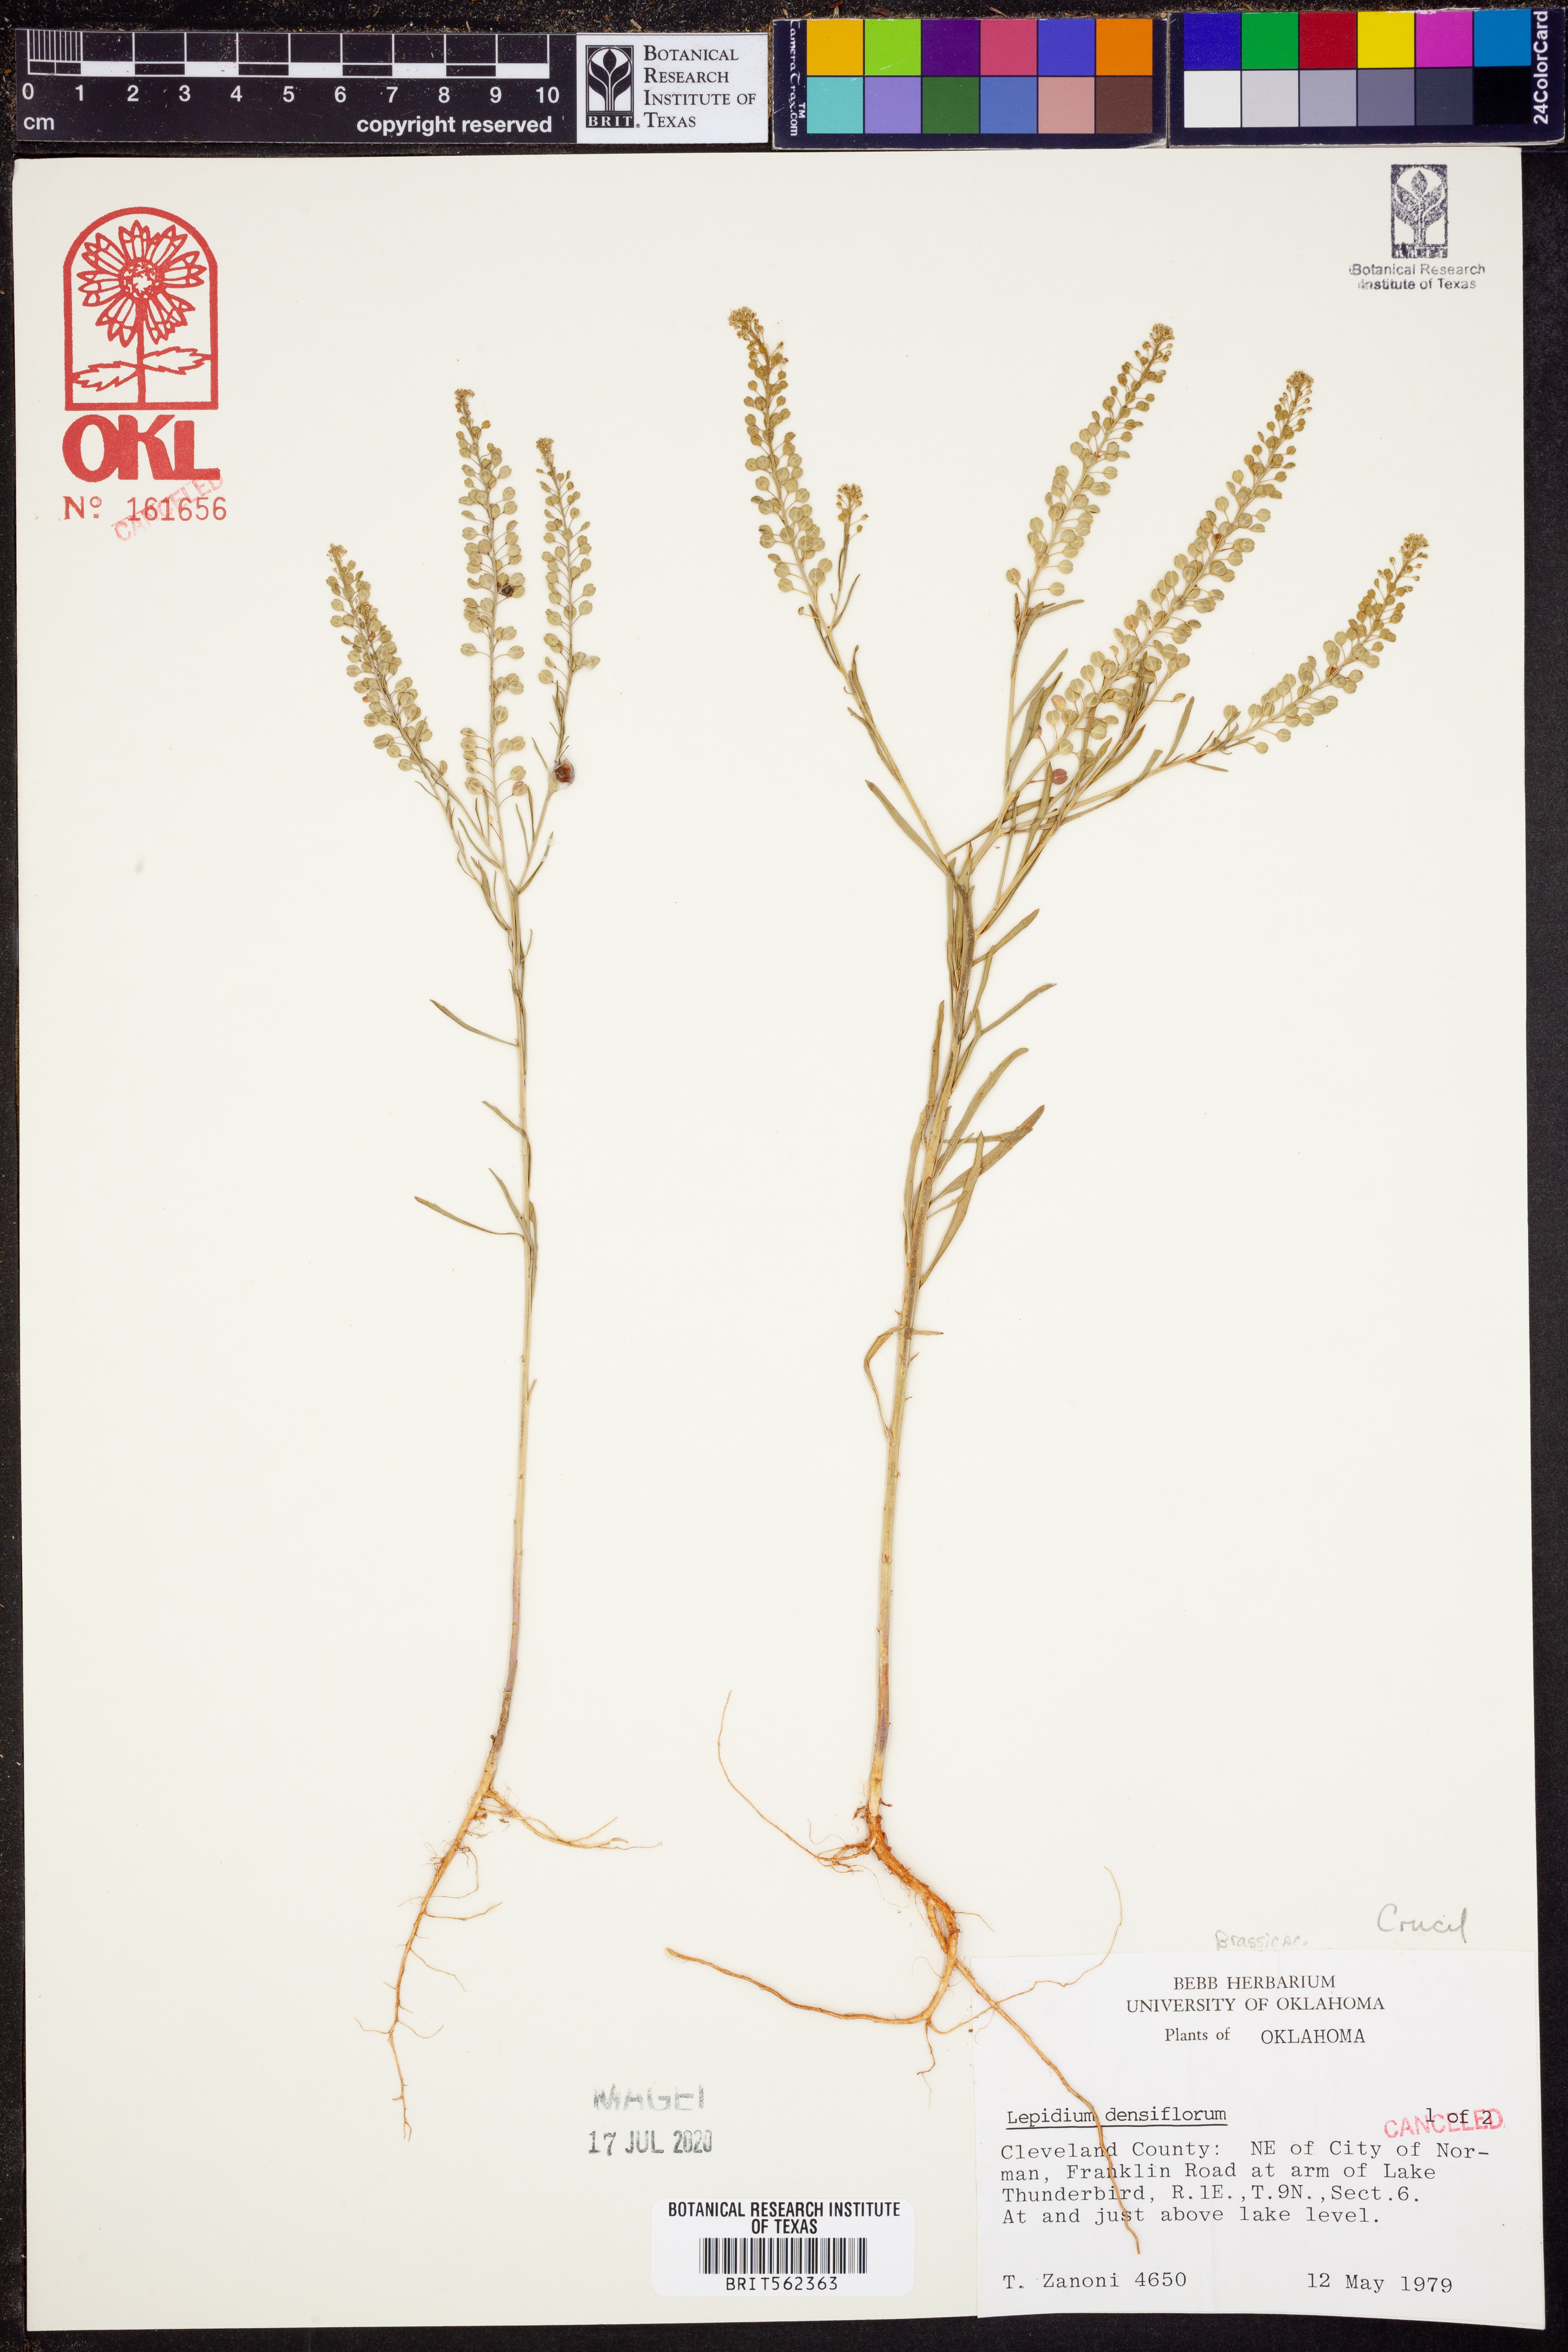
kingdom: Plantae
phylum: Tracheophyta
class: Magnoliopsida
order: Brassicales
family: Brassicaceae
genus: Lepidium
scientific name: Lepidium densiflorum
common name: Miner's pepperwort
